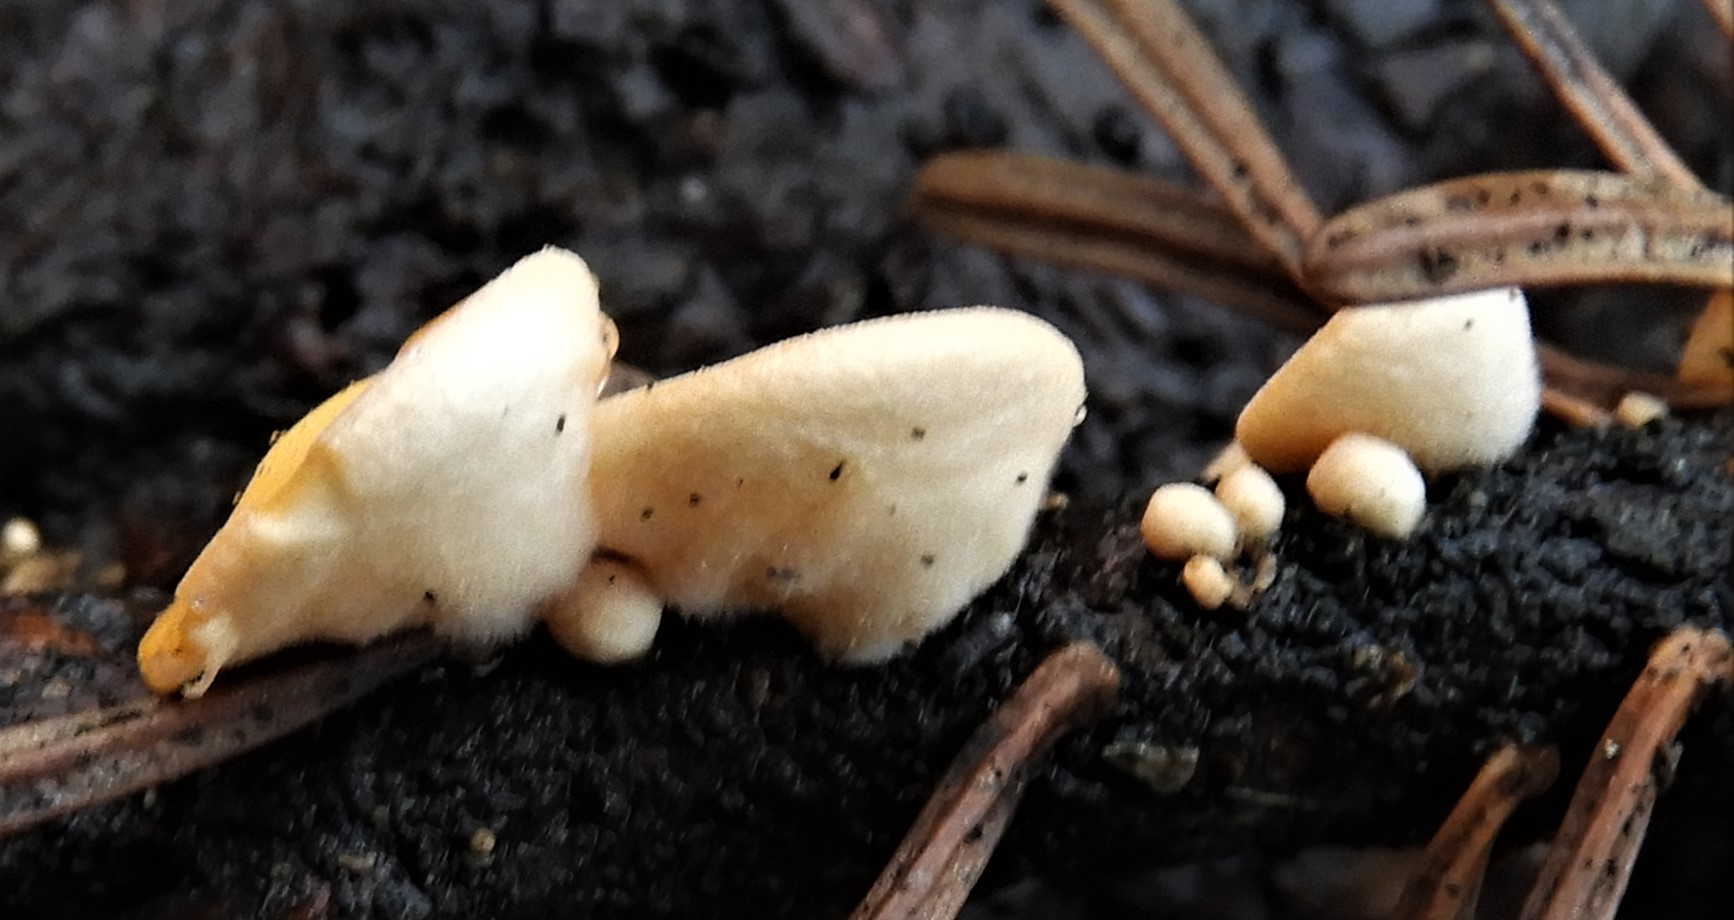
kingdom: Fungi
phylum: Ascomycota
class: Pezizomycetes
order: Pezizales
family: Sarcoscyphaceae
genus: Pithya
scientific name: Pithya vulgaris
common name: stor dukatbæger
